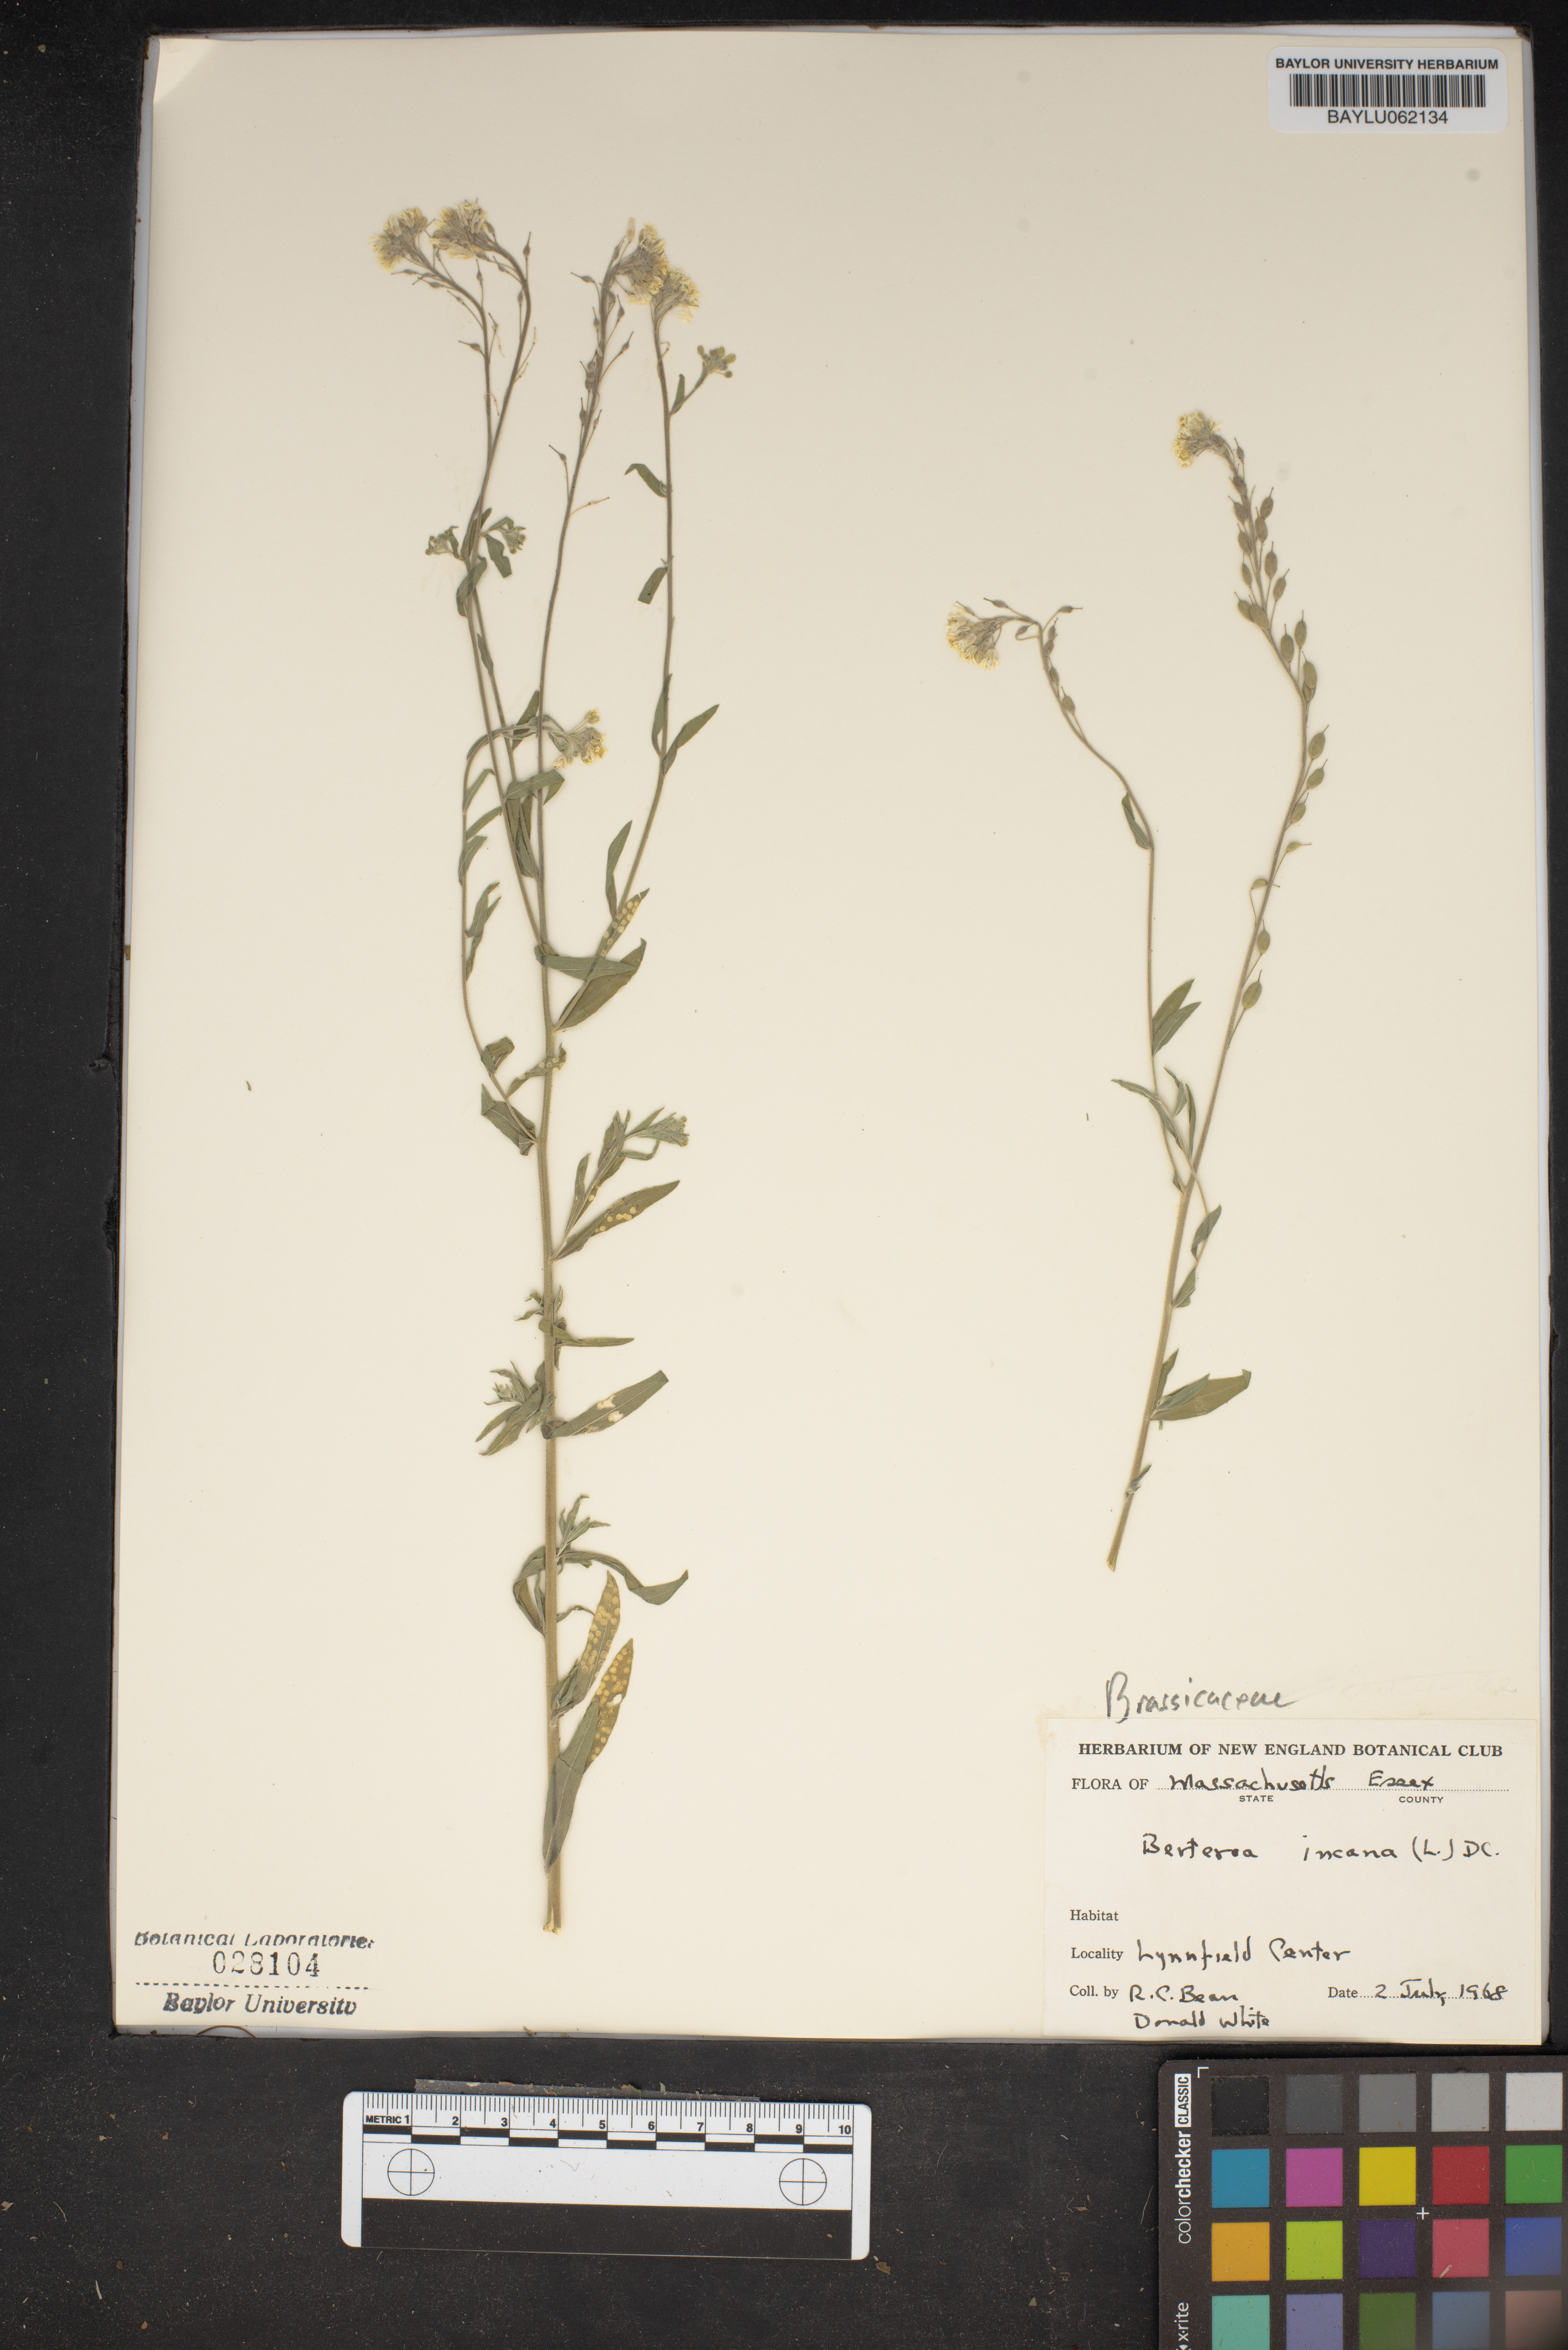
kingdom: Plantae
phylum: Tracheophyta
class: Magnoliopsida
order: Brassicales
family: Brassicaceae
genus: Berteroa
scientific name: Berteroa incana
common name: Hoary alison
